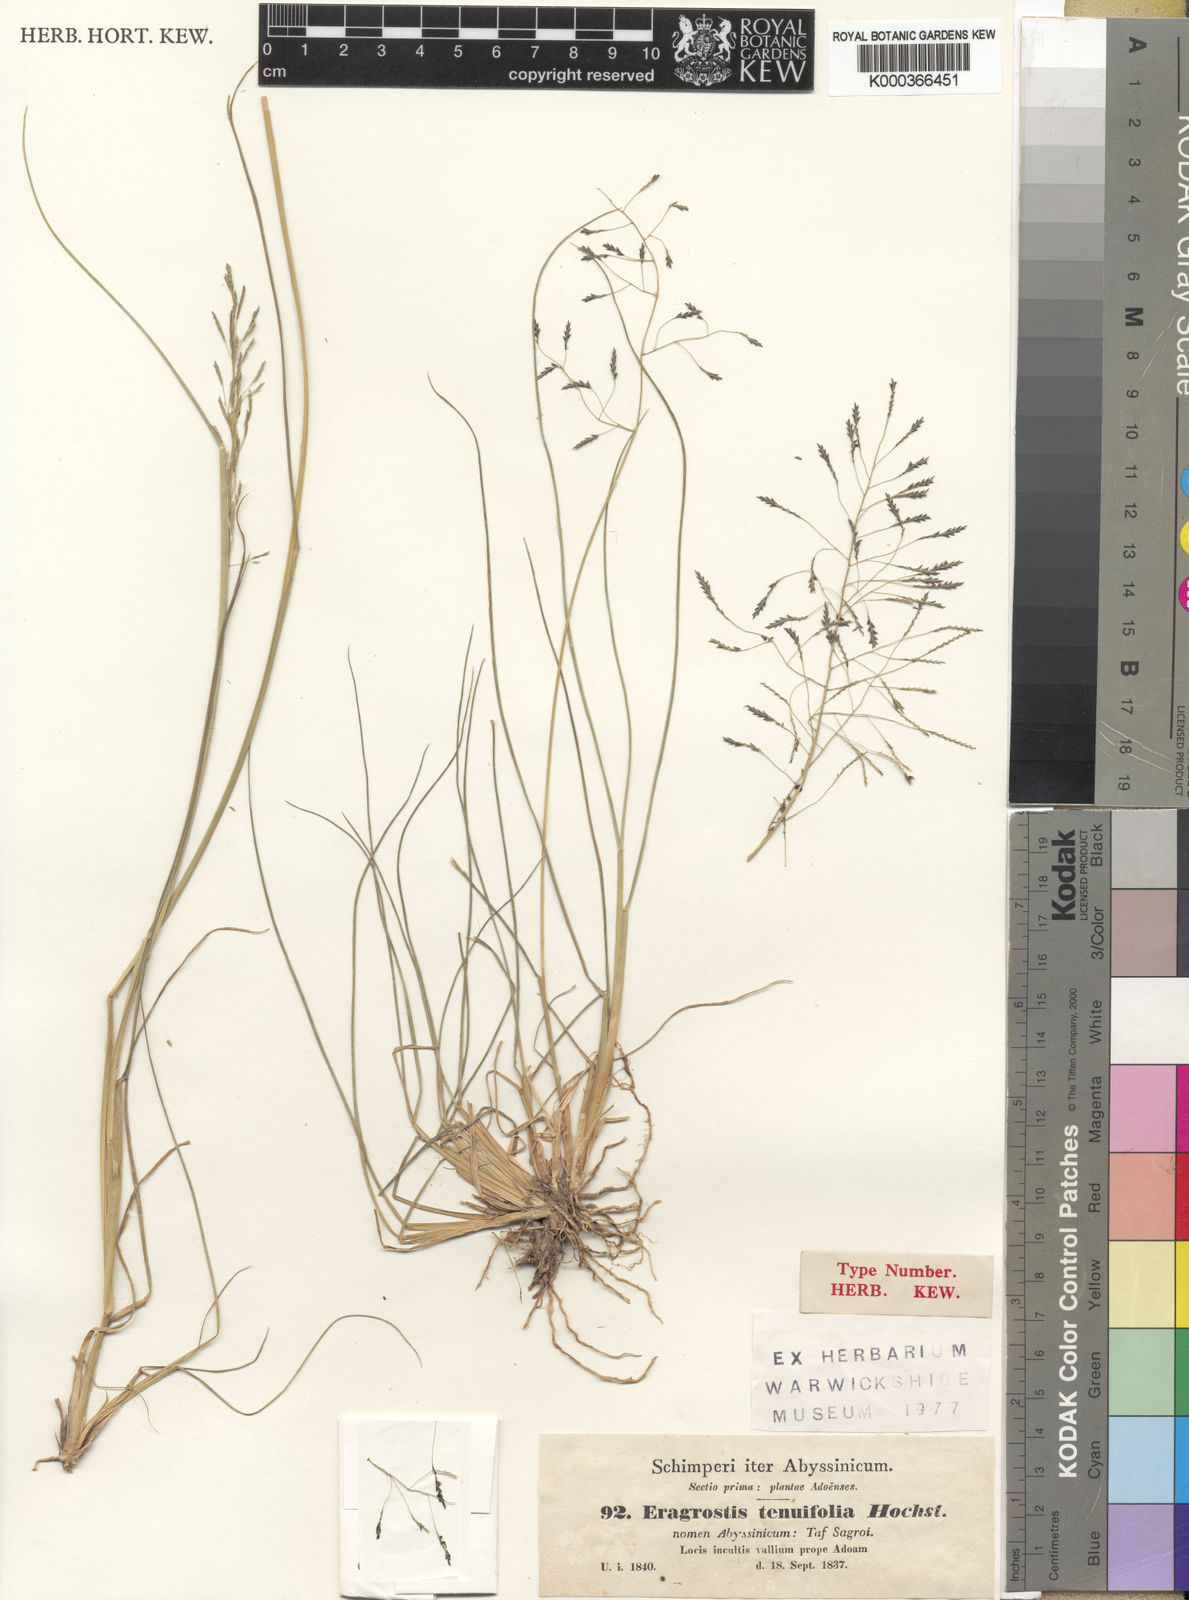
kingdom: Plantae
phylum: Tracheophyta
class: Liliopsida
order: Poales
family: Poaceae
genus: Eragrostis
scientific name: Eragrostis
